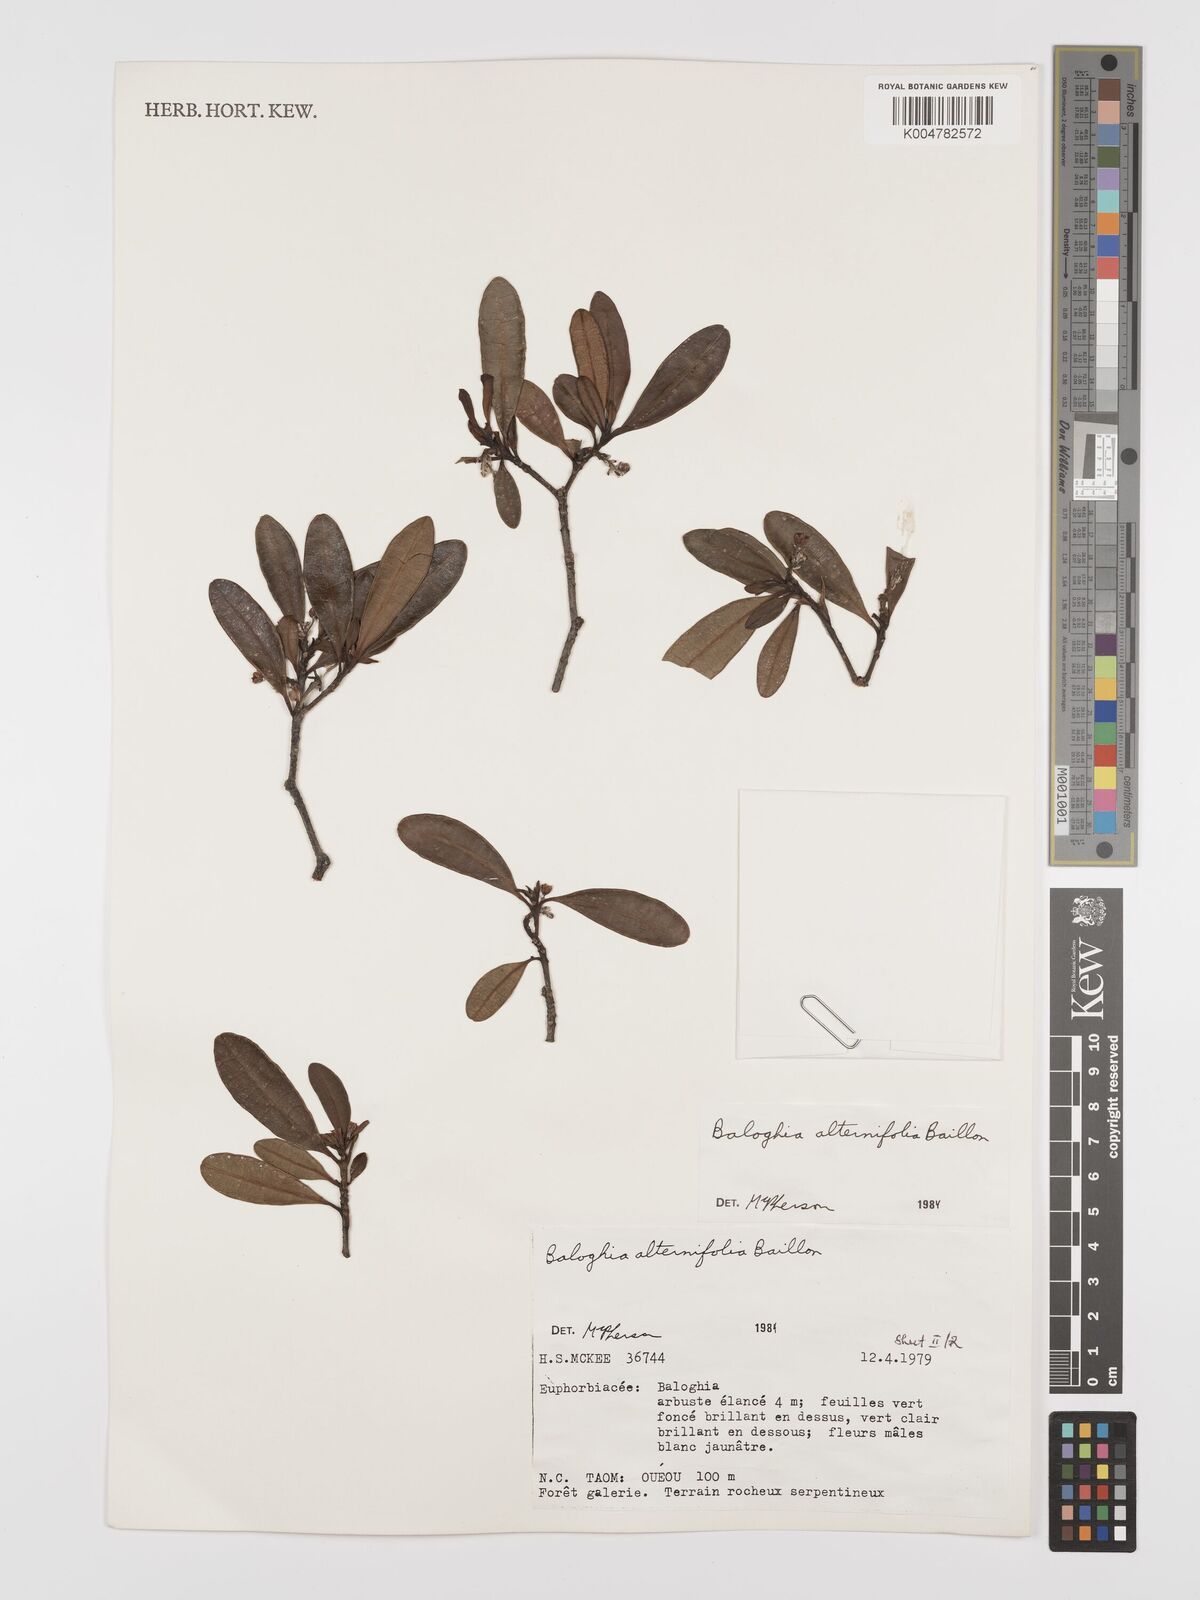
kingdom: Plantae
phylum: Tracheophyta
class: Magnoliopsida
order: Malpighiales
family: Euphorbiaceae
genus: Baloghia
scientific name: Baloghia alternifolia
